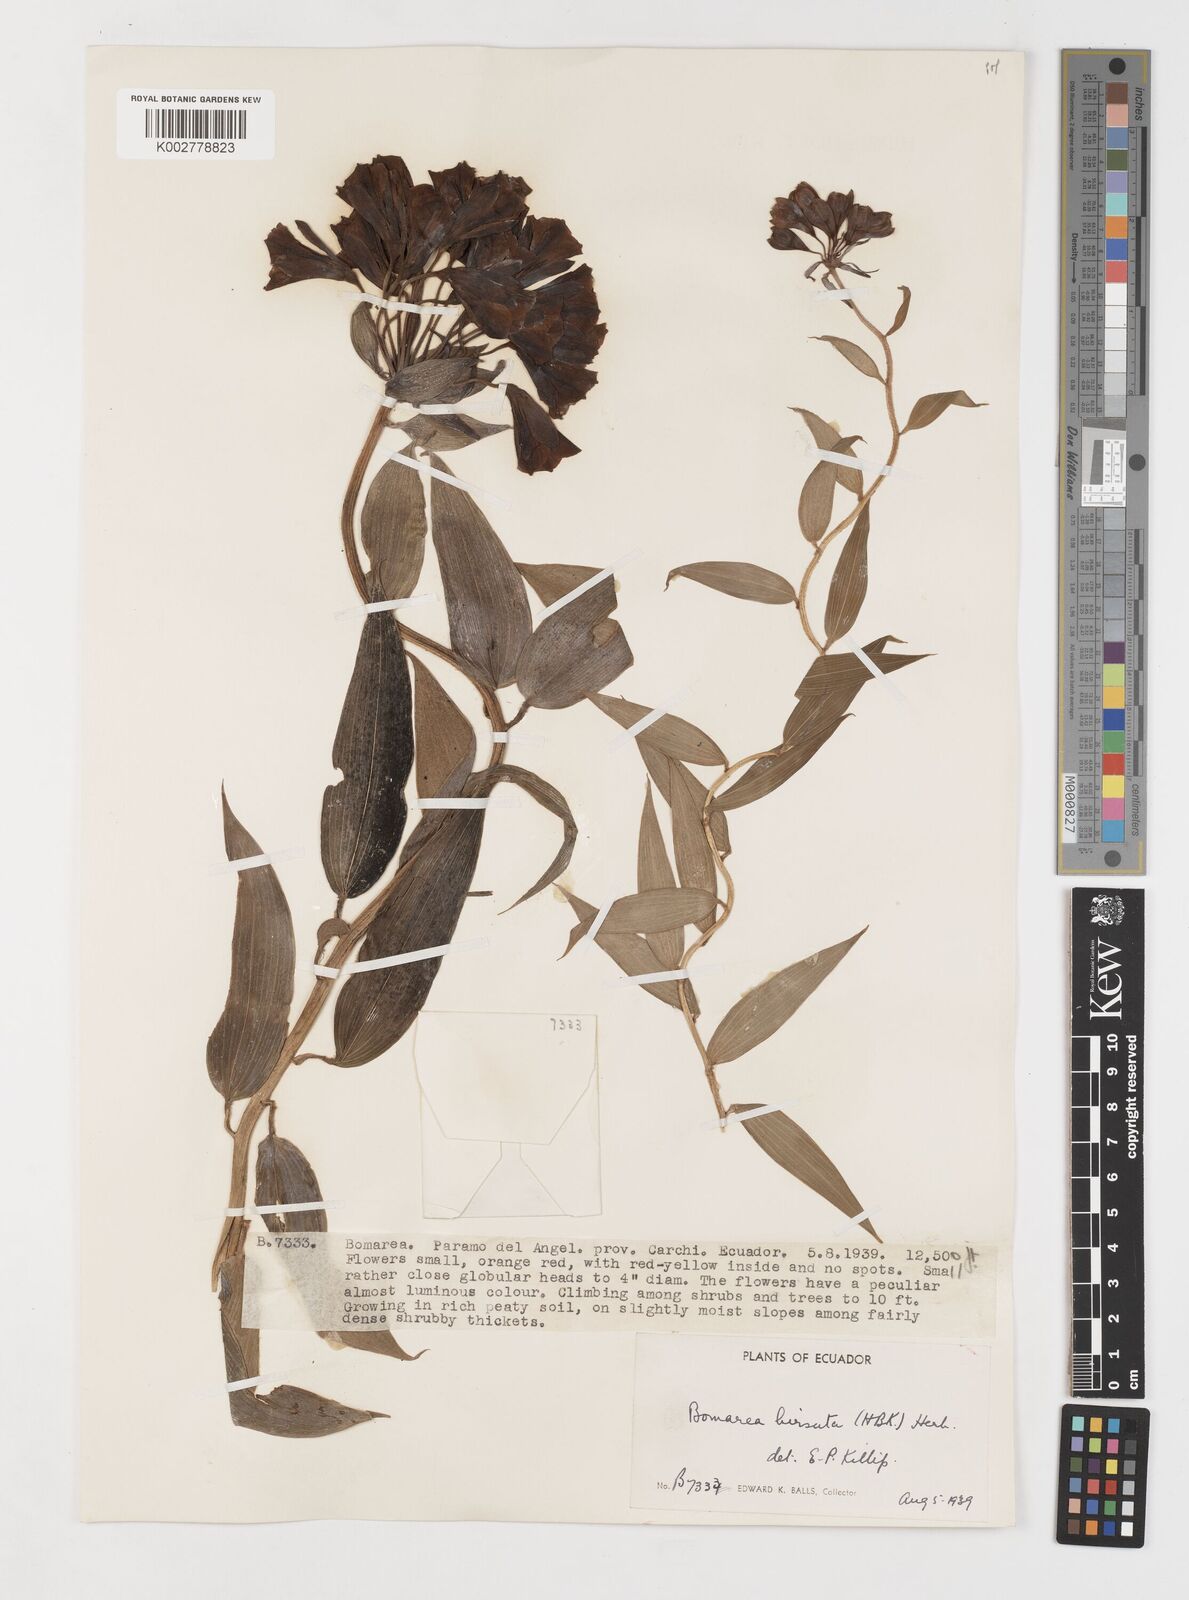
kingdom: Plantae
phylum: Tracheophyta
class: Liliopsida
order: Liliales
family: Alstroemeriaceae
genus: Bomarea
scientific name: Bomarea hirsuta
